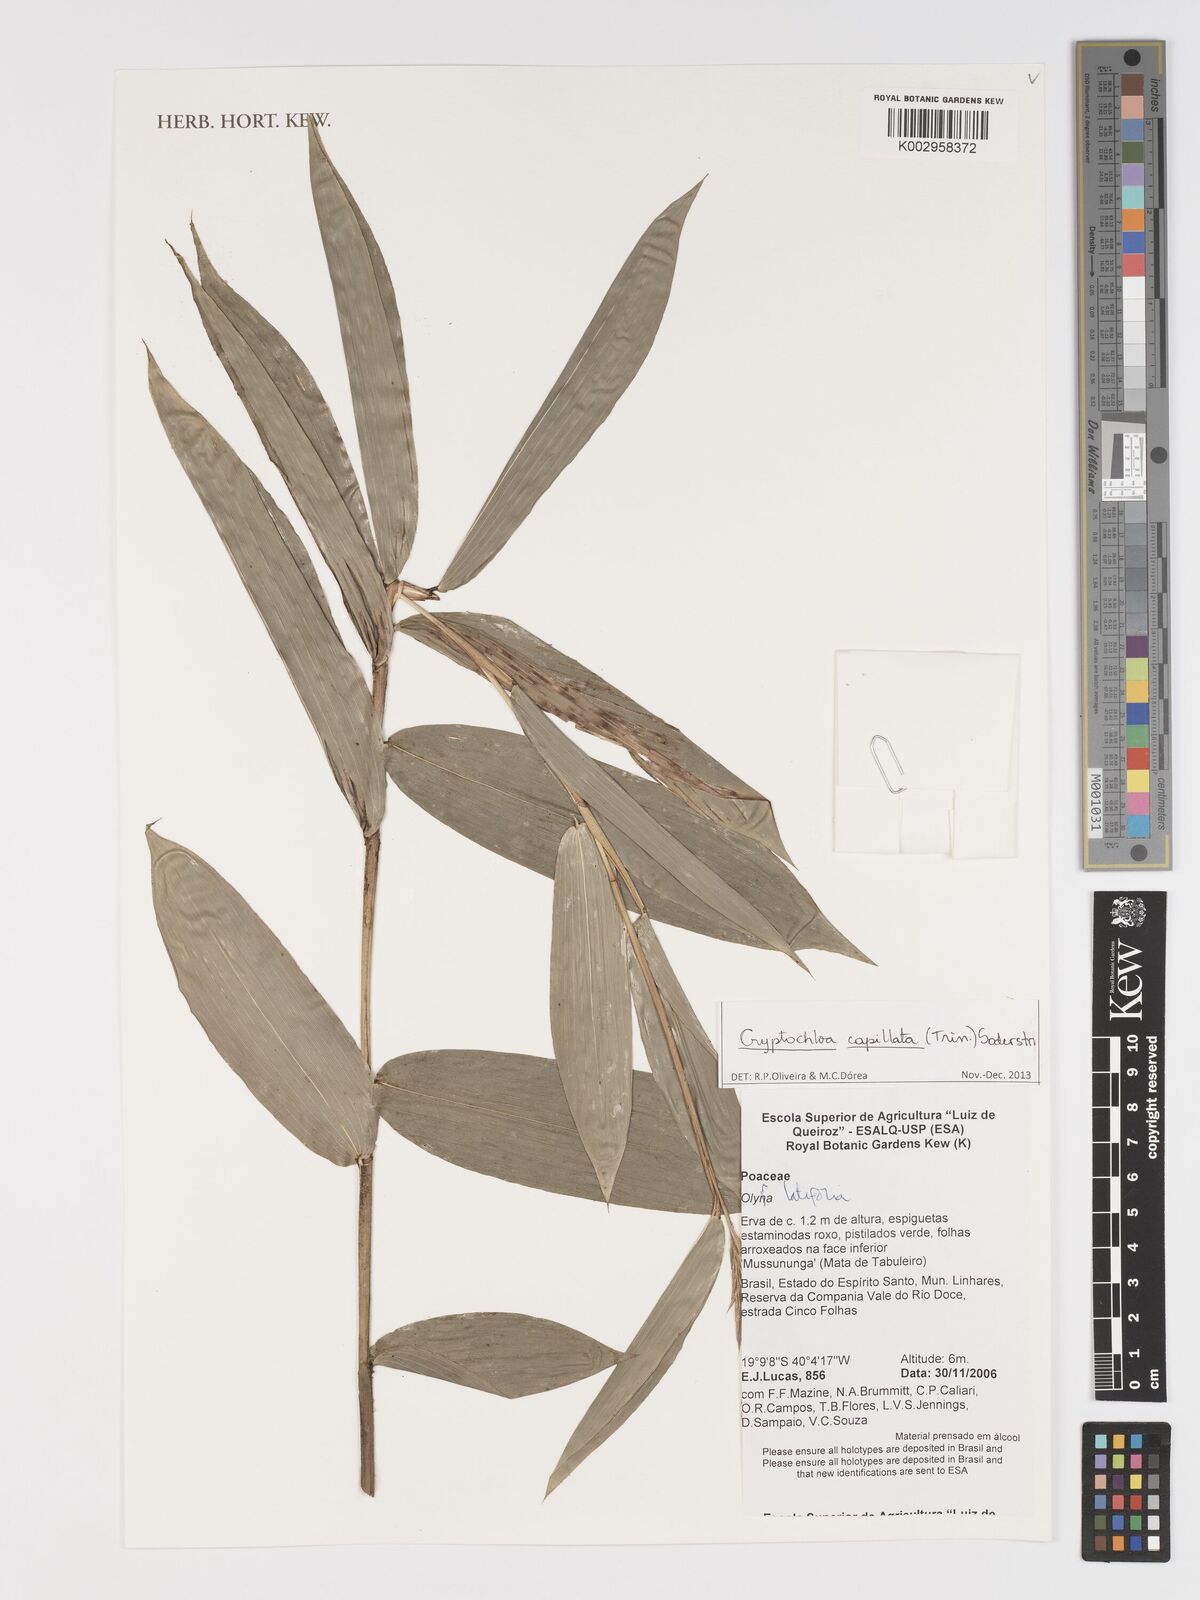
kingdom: Plantae
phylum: Tracheophyta
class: Liliopsida
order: Poales
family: Poaceae
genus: Cryptochloa
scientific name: Cryptochloa capillata
